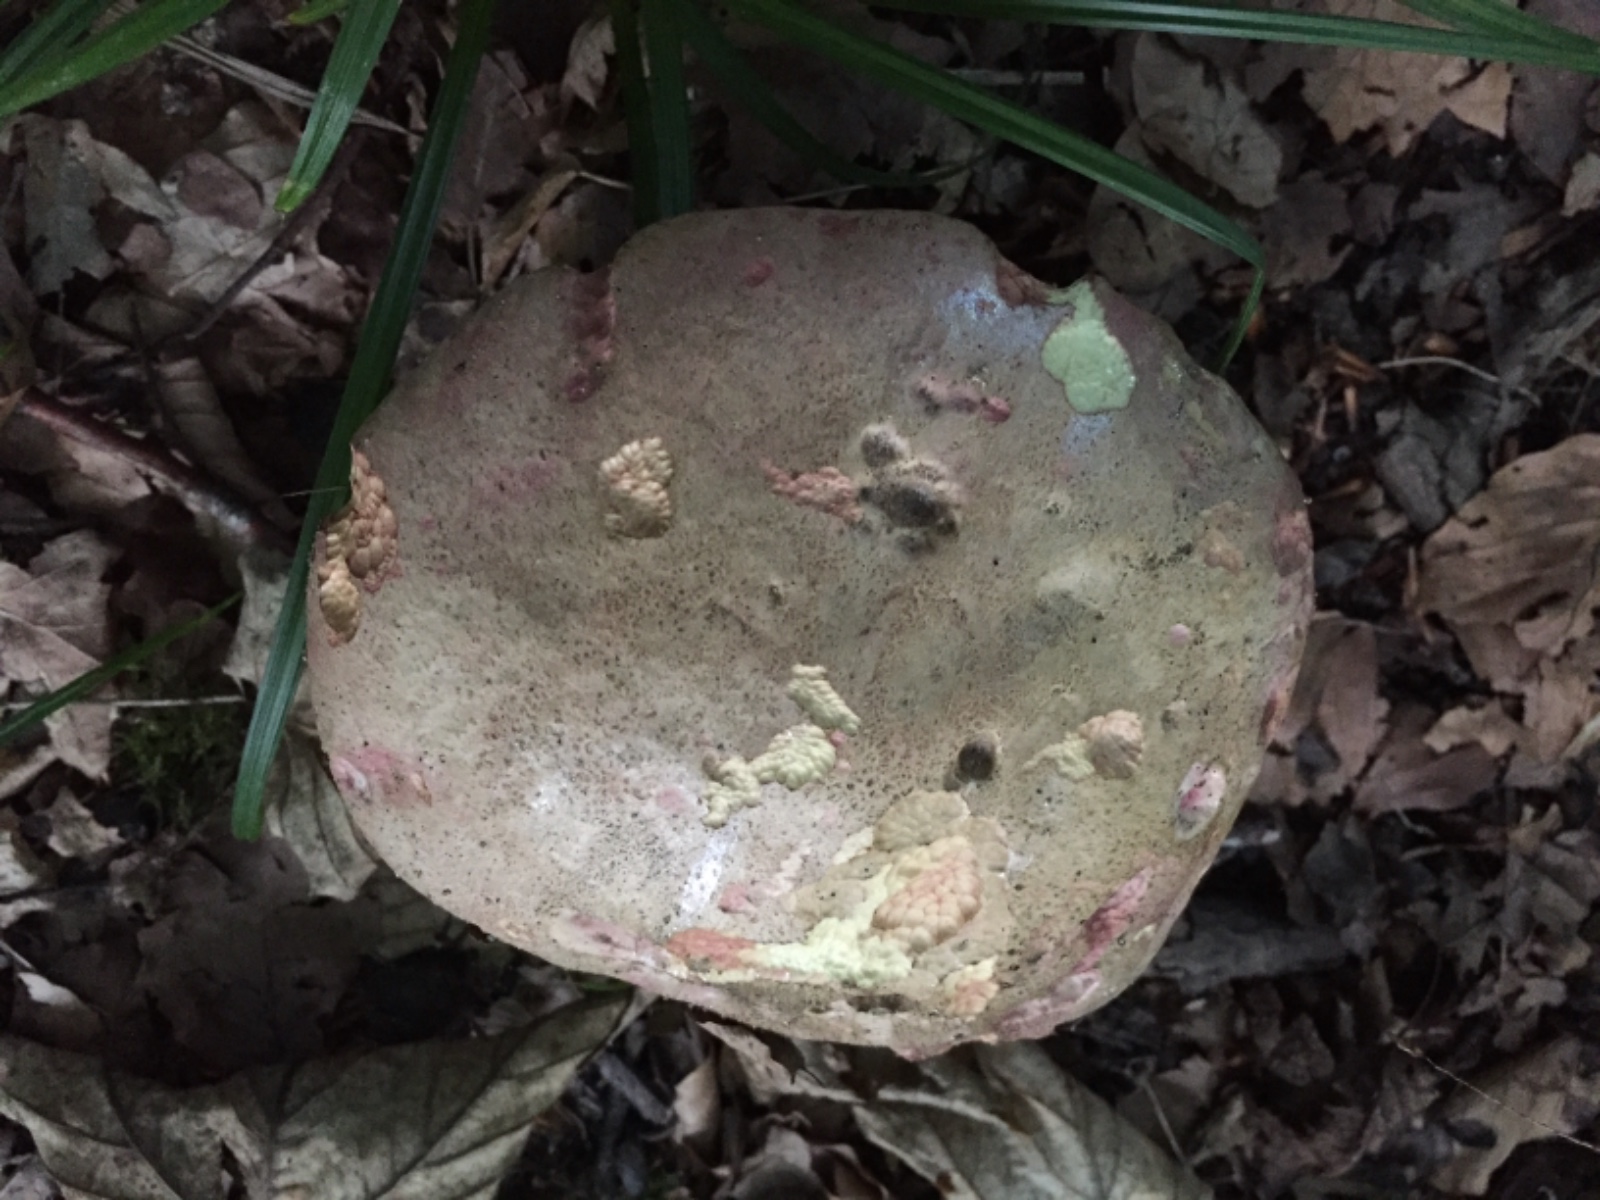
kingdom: Fungi
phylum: Basidiomycota
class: Agaricomycetes
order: Boletales
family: Boletaceae
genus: Rubroboletus
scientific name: Rubroboletus legaliae
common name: djævle-rørhat
